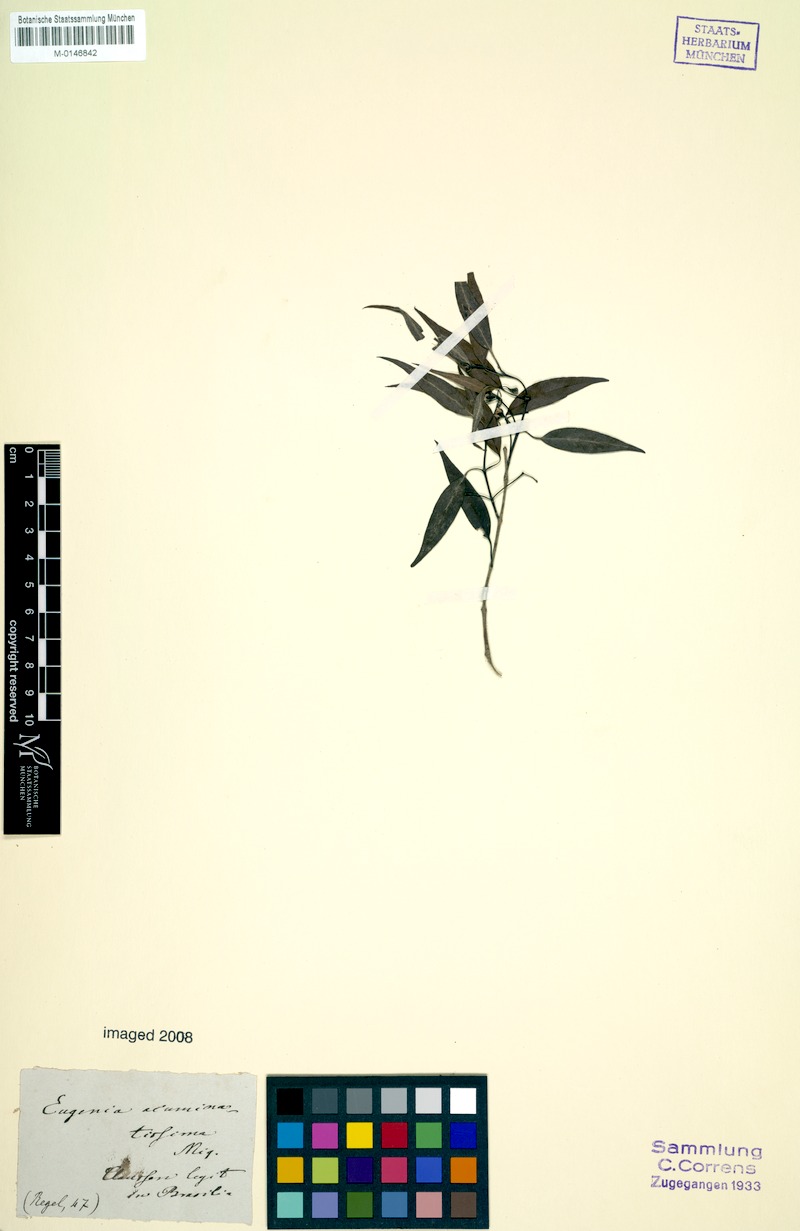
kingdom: Plantae
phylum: Tracheophyta
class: Magnoliopsida
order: Myrtales
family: Myrtaceae
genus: Blepharocalyx
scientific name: Blepharocalyx salicifolius
